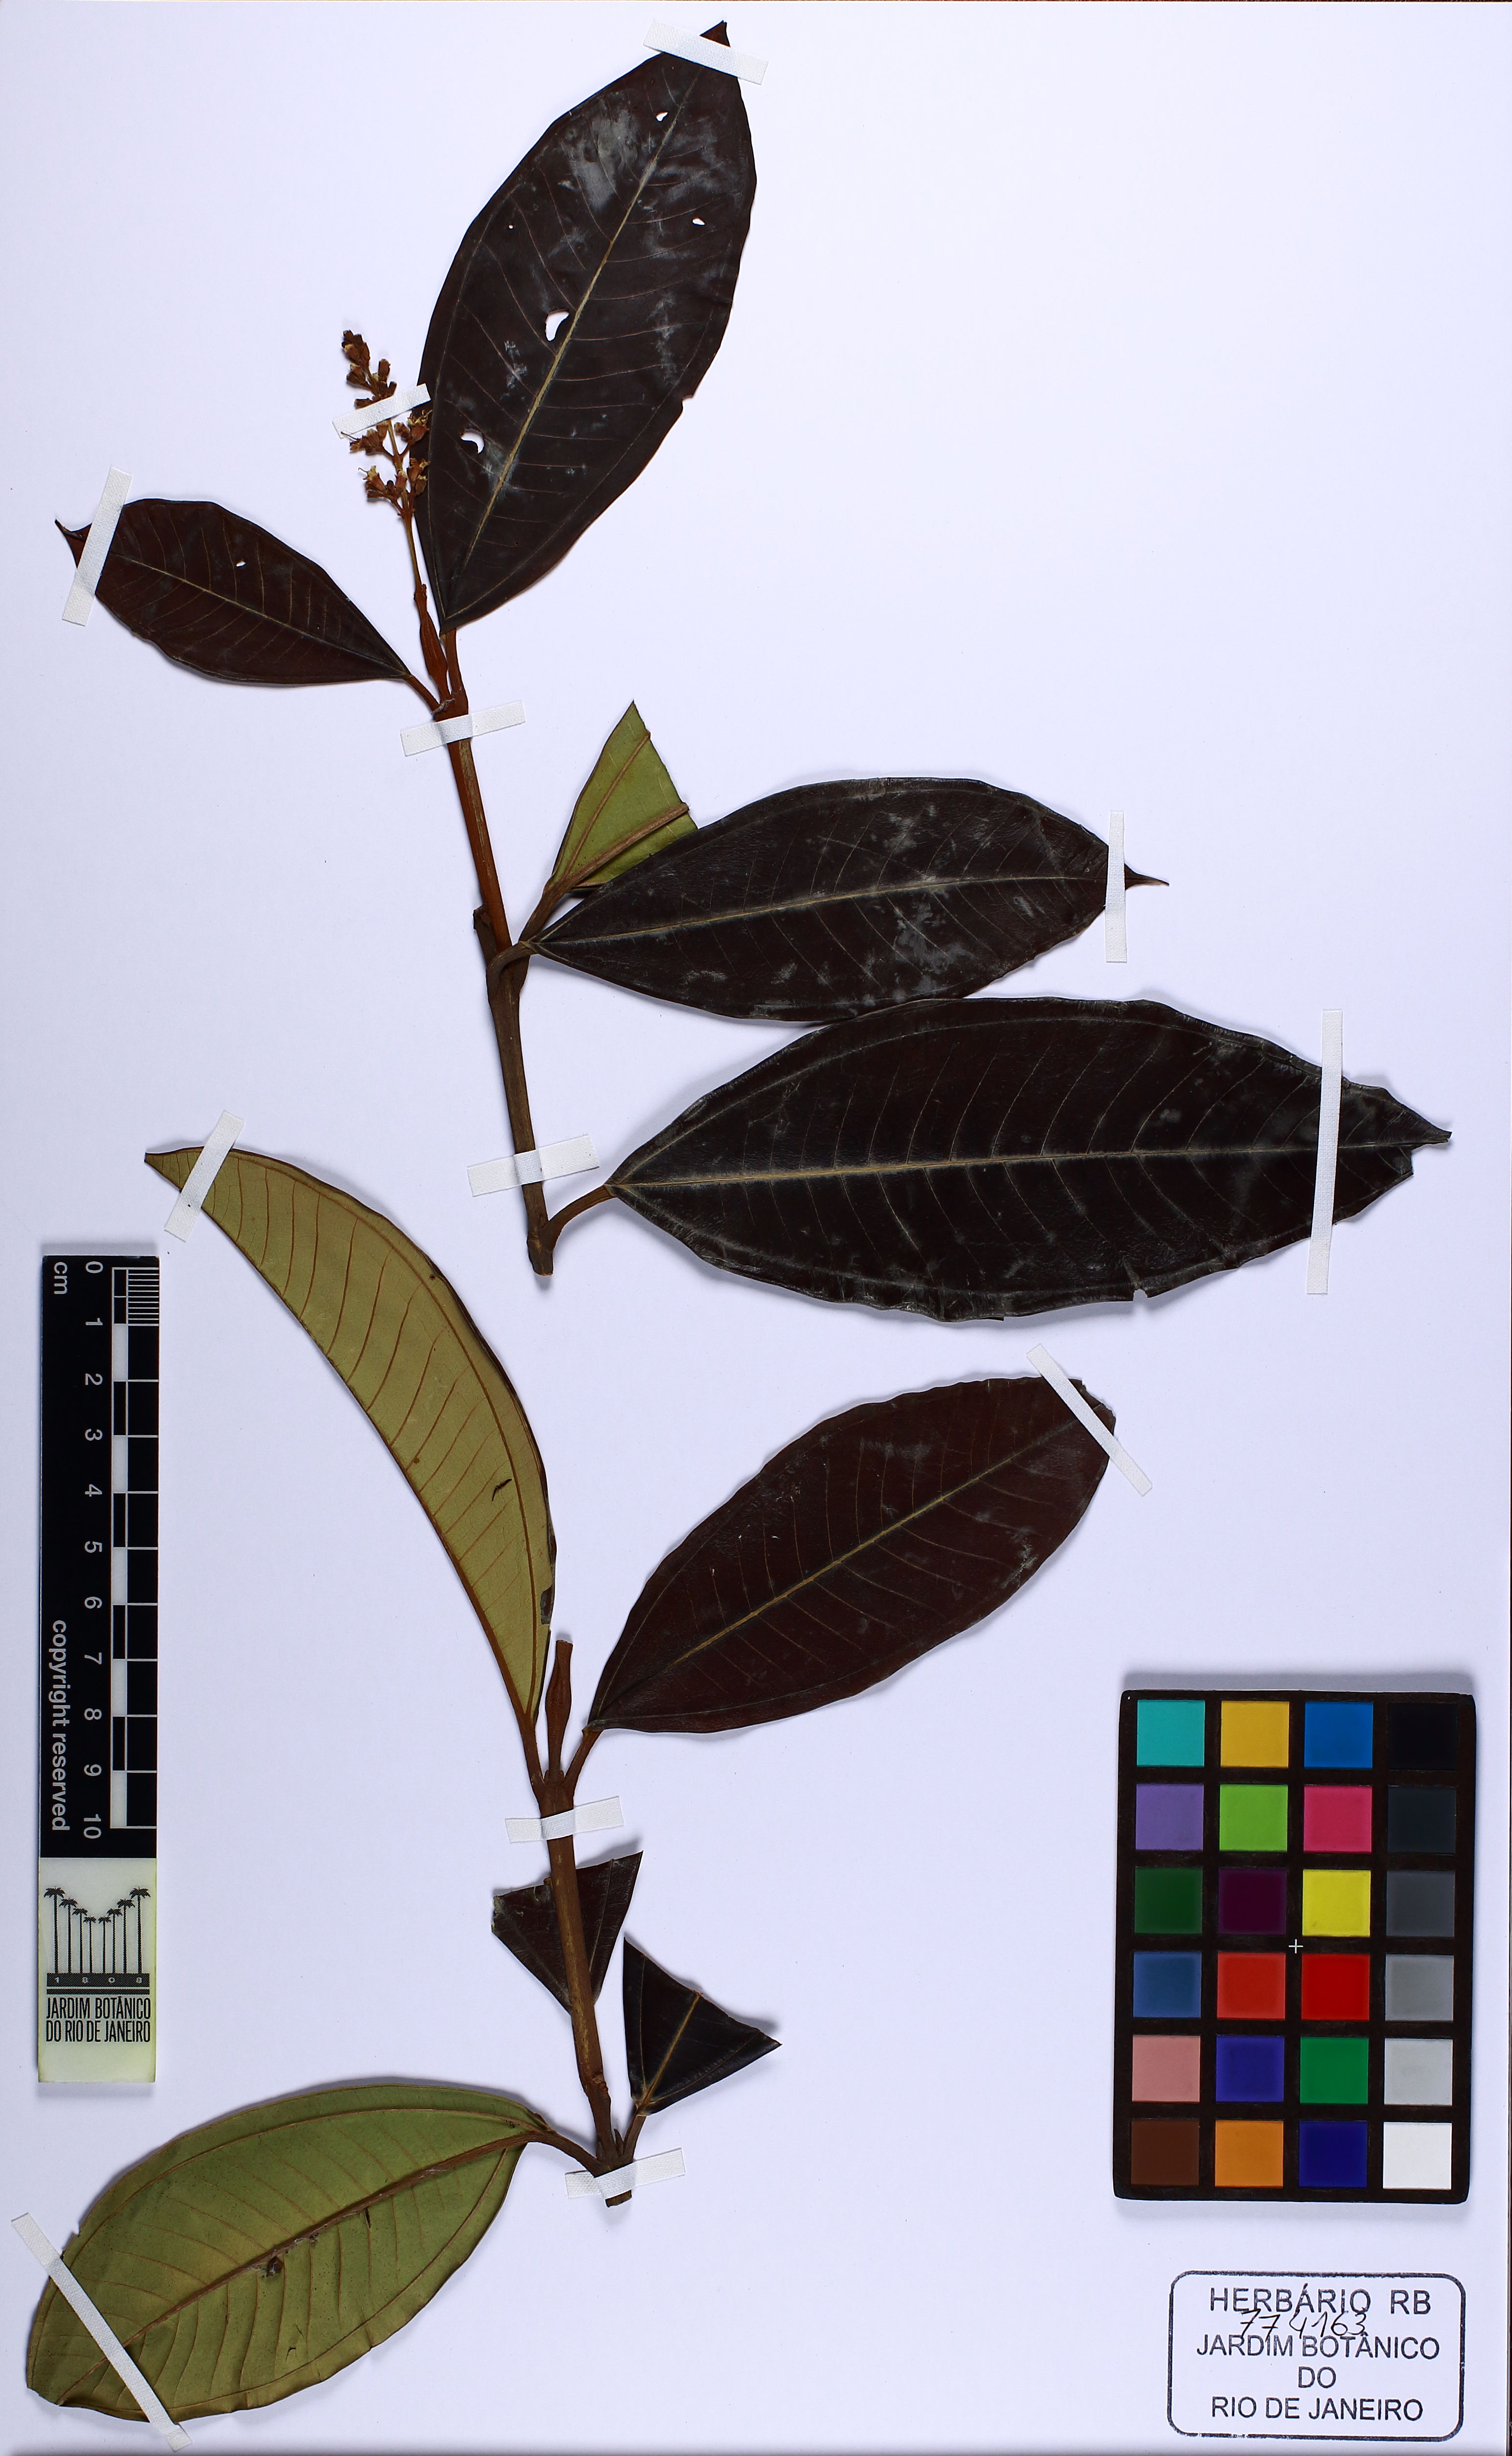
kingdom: Plantae
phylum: Tracheophyta
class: Magnoliopsida
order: Myrtales
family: Melastomataceae
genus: Miconia
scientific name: Miconia elegans
